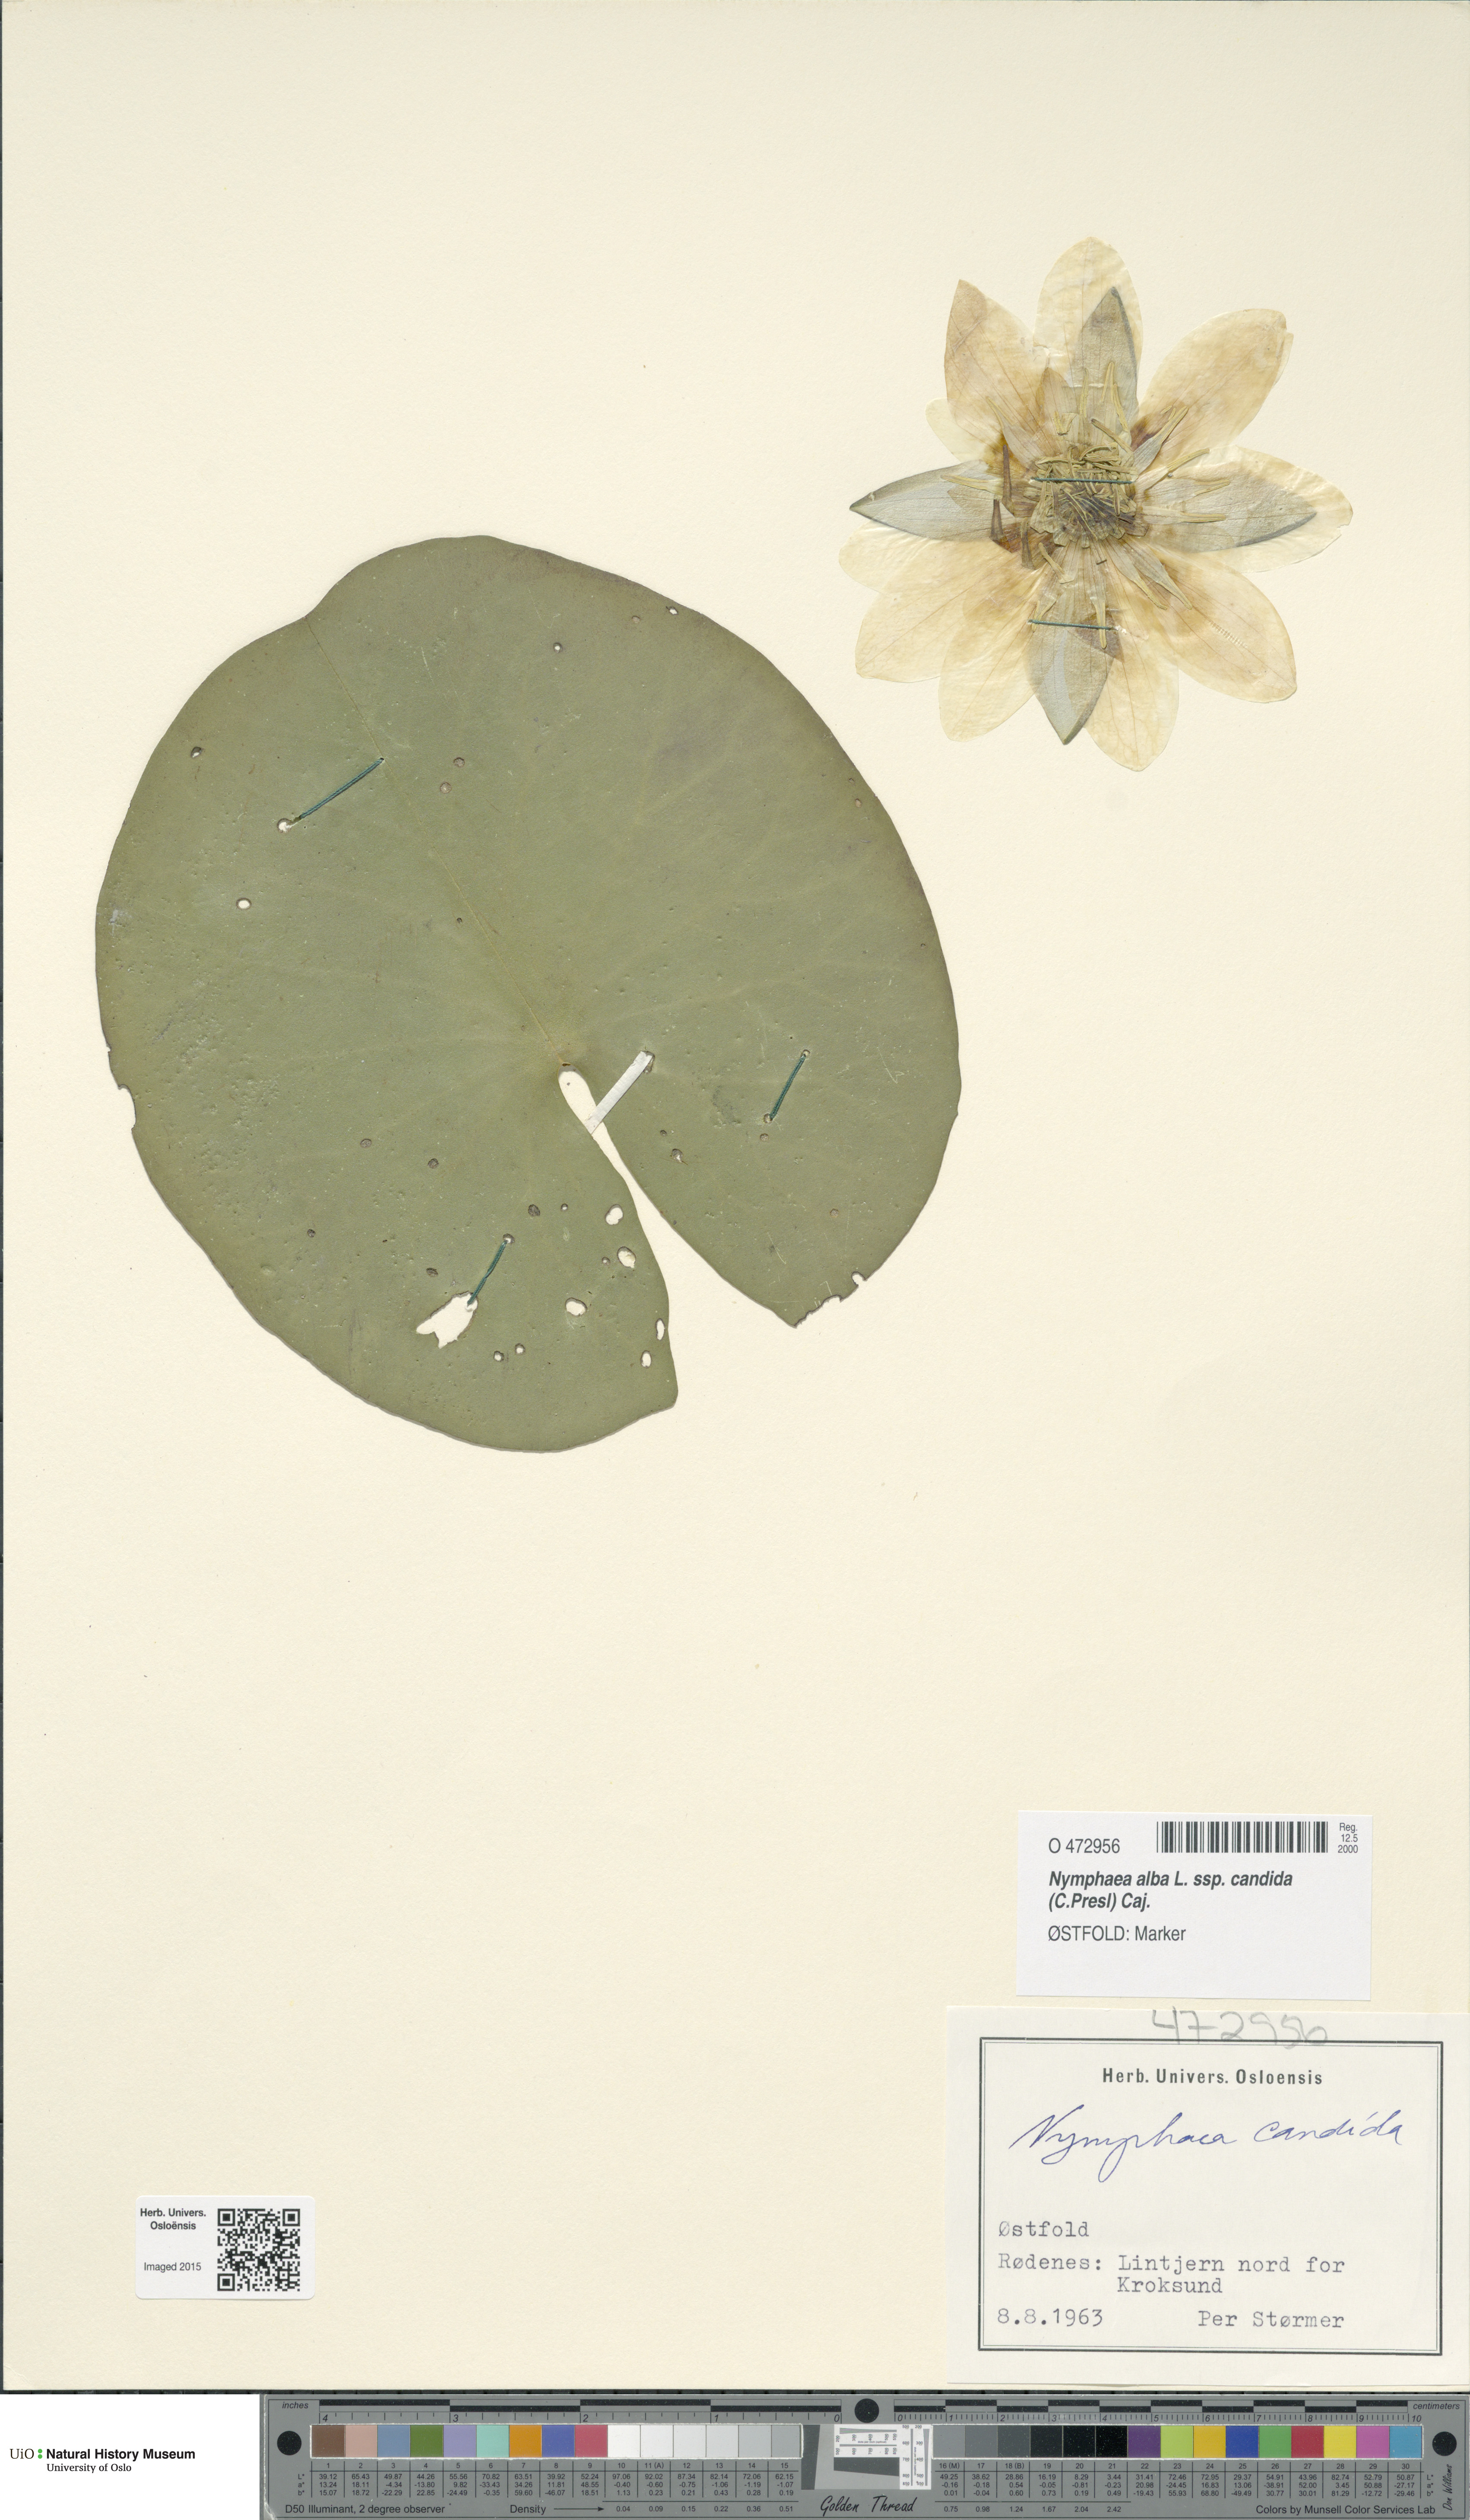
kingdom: Plantae
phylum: Tracheophyta
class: Magnoliopsida
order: Nymphaeales
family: Nymphaeaceae
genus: Nymphaea
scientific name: Nymphaea candida
